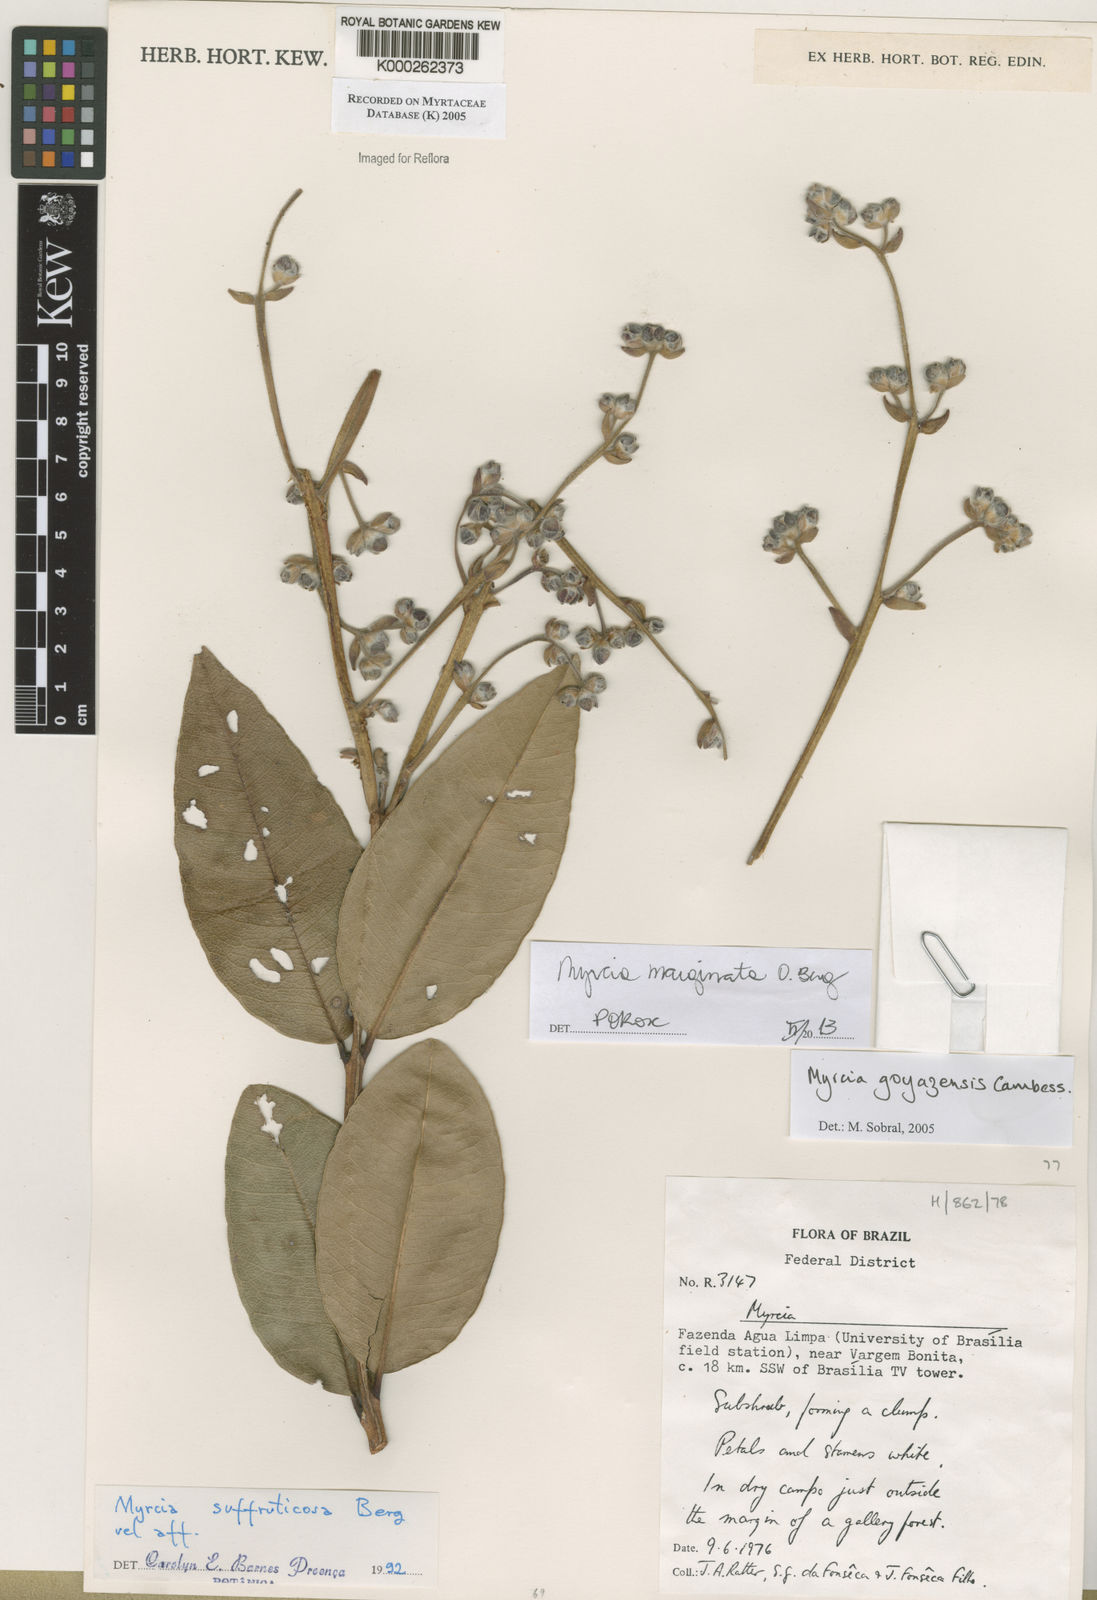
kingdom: Plantae
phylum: Tracheophyta
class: Magnoliopsida
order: Myrtales
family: Myrtaceae
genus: Myrcia
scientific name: Myrcia goyazensis
